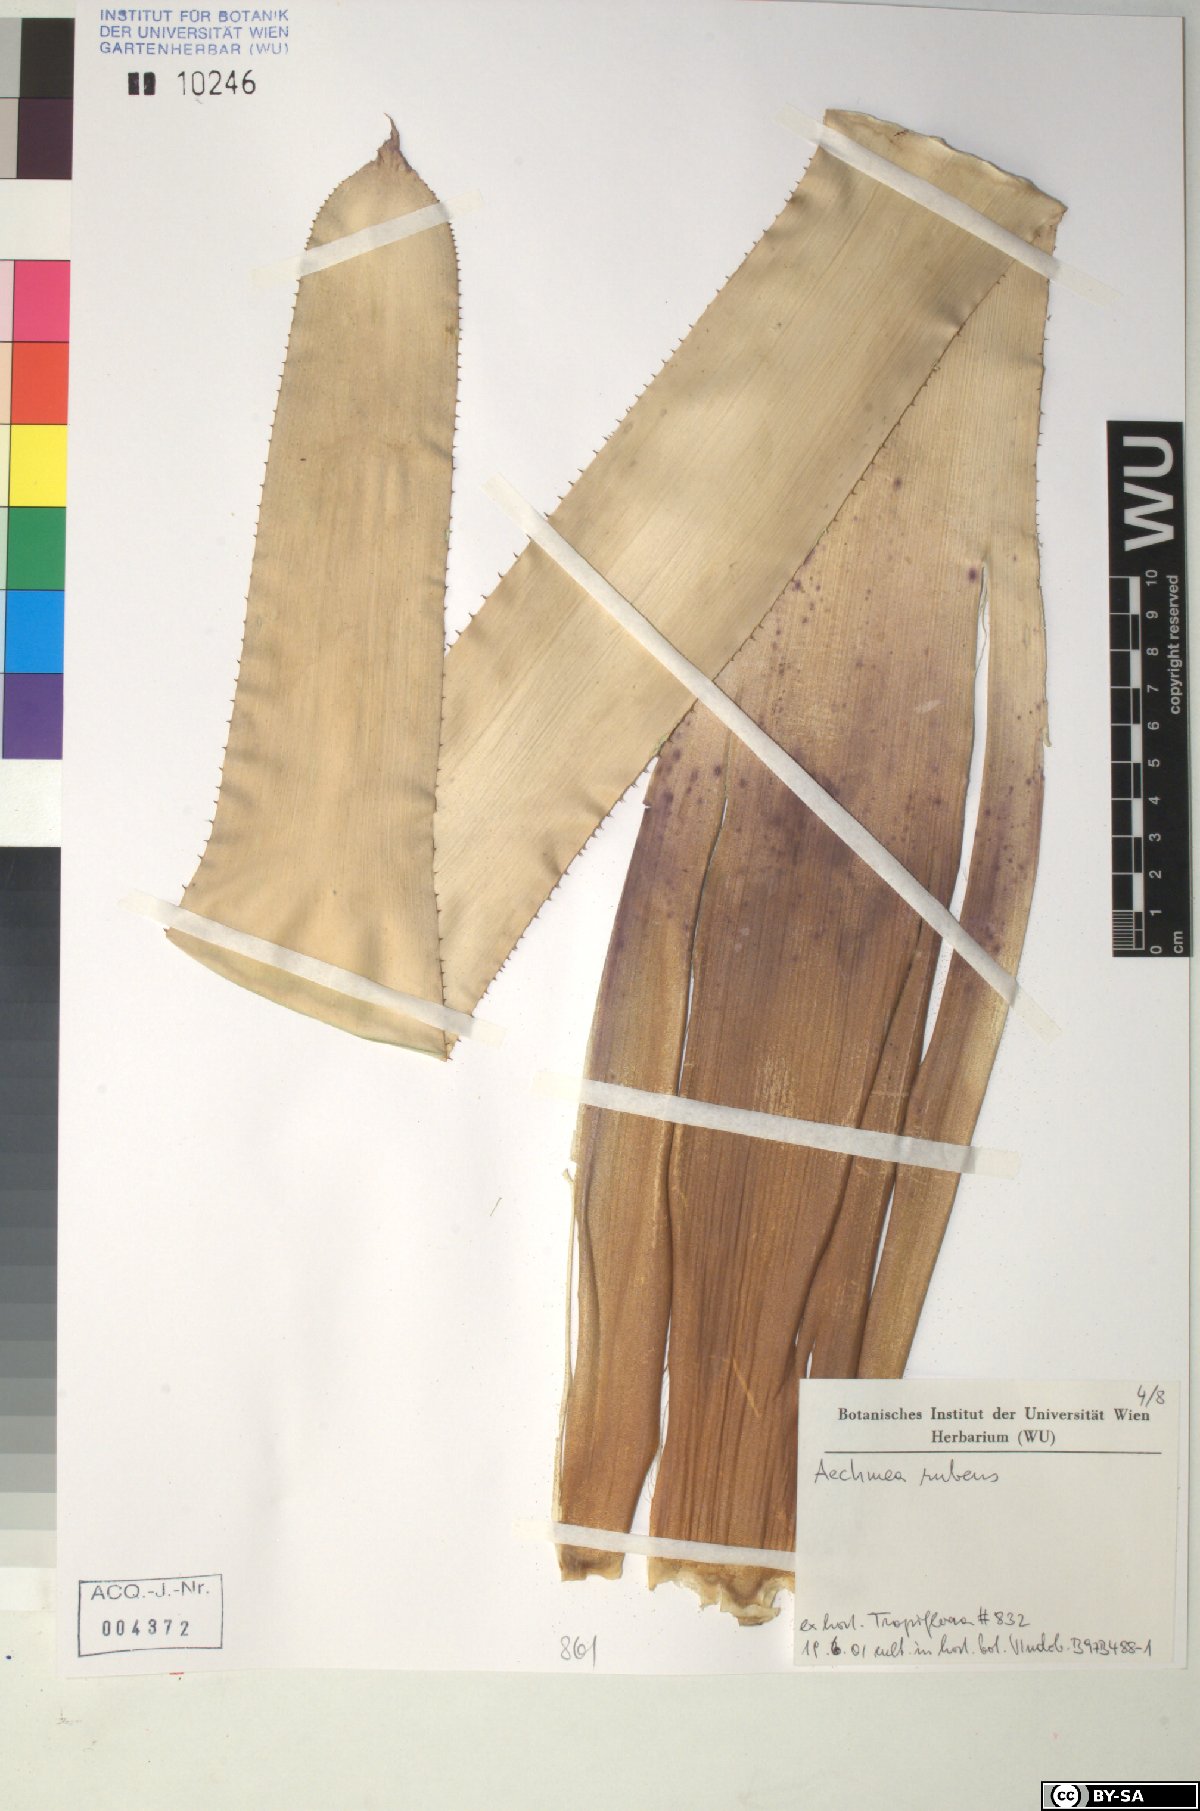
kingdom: Plantae
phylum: Tracheophyta
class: Liliopsida
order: Poales
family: Bromeliaceae
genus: Aechmea
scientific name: Aechmea rubens
